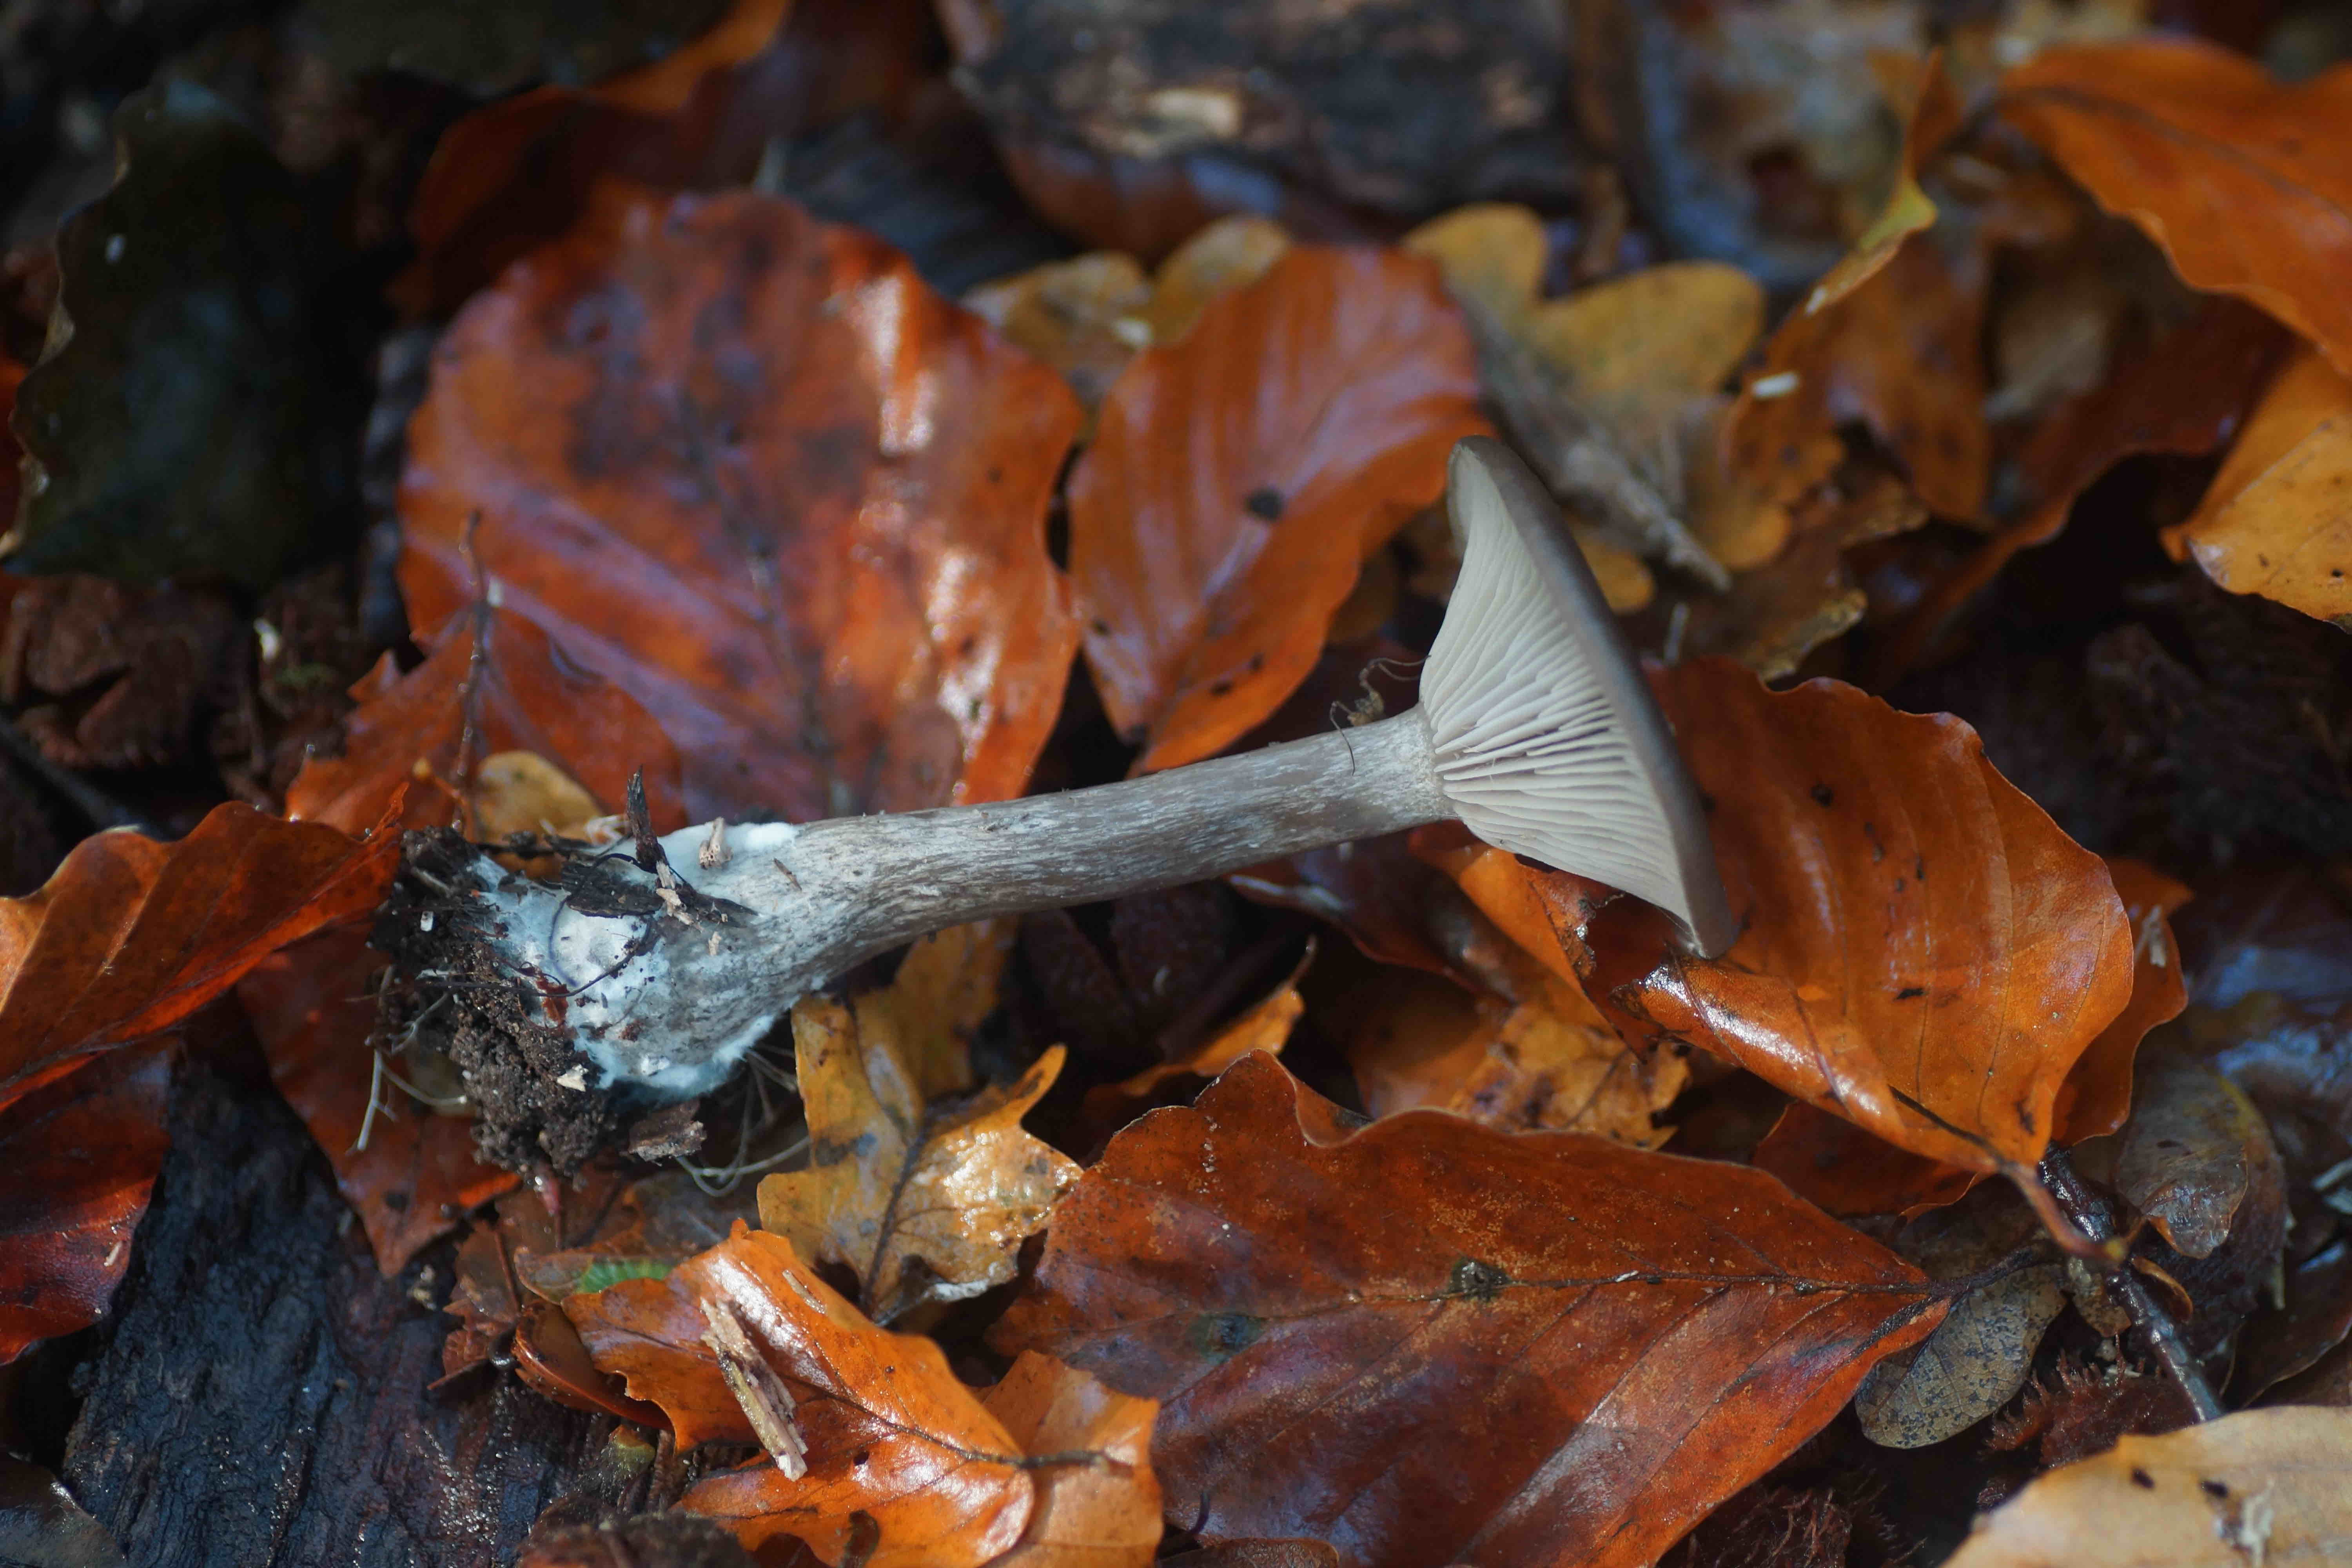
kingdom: Fungi
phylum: Basidiomycota
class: Agaricomycetes
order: Agaricales
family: Pseudoclitocybaceae
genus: Pseudoclitocybe
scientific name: Pseudoclitocybe cyathiformis
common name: almindelig bægertragthat
